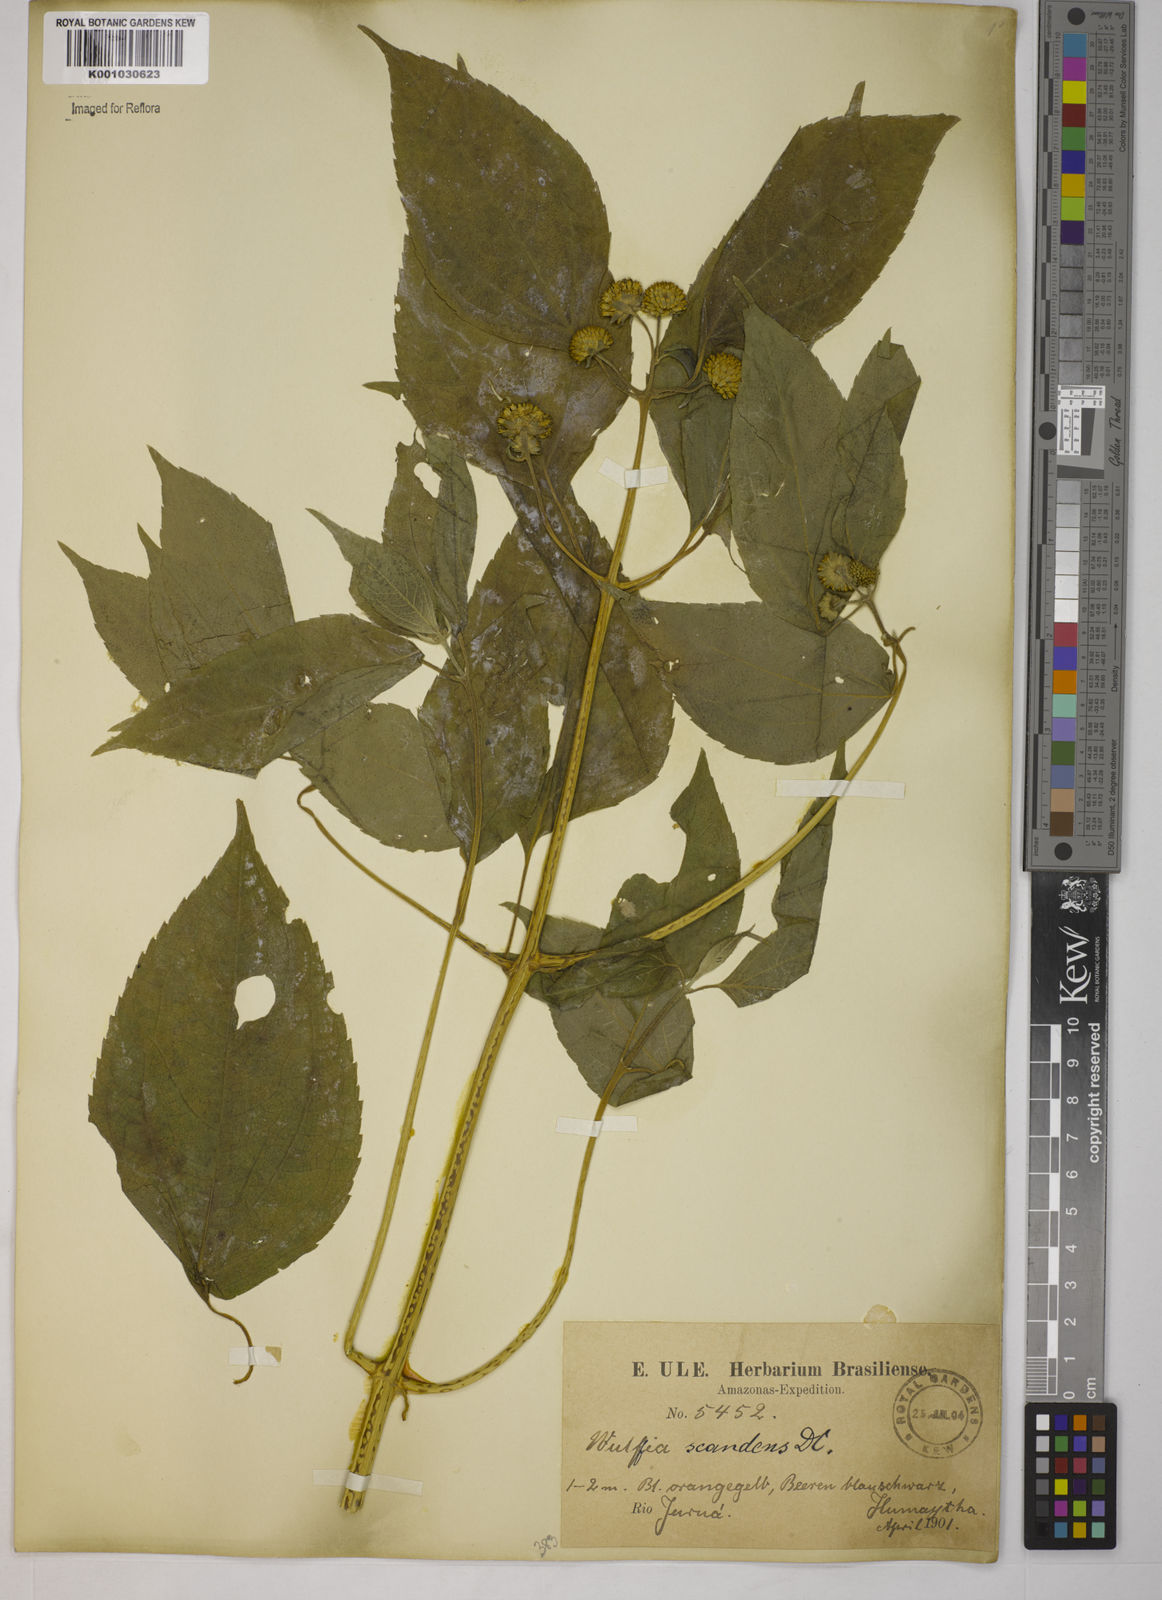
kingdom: Plantae
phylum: Tracheophyta
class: Magnoliopsida
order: Asterales
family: Asteraceae
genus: Tilesia
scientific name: Tilesia baccata
